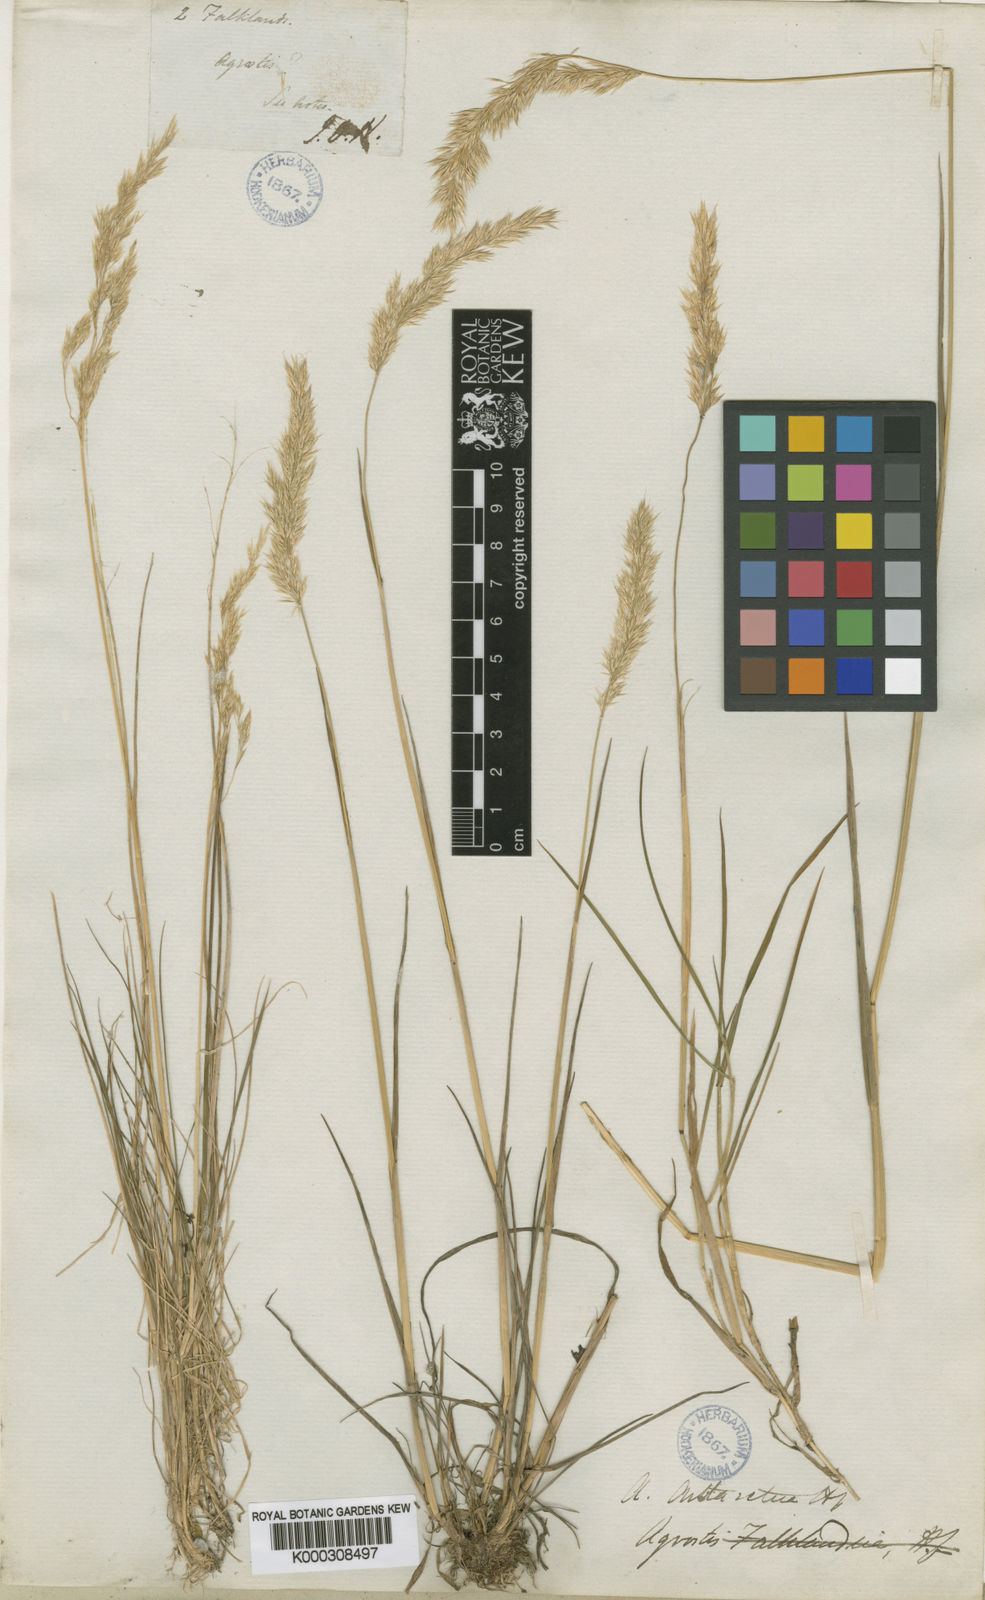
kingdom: Plantae
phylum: Tracheophyta
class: Liliopsida
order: Poales
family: Poaceae
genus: Polypogon
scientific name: Polypogon
